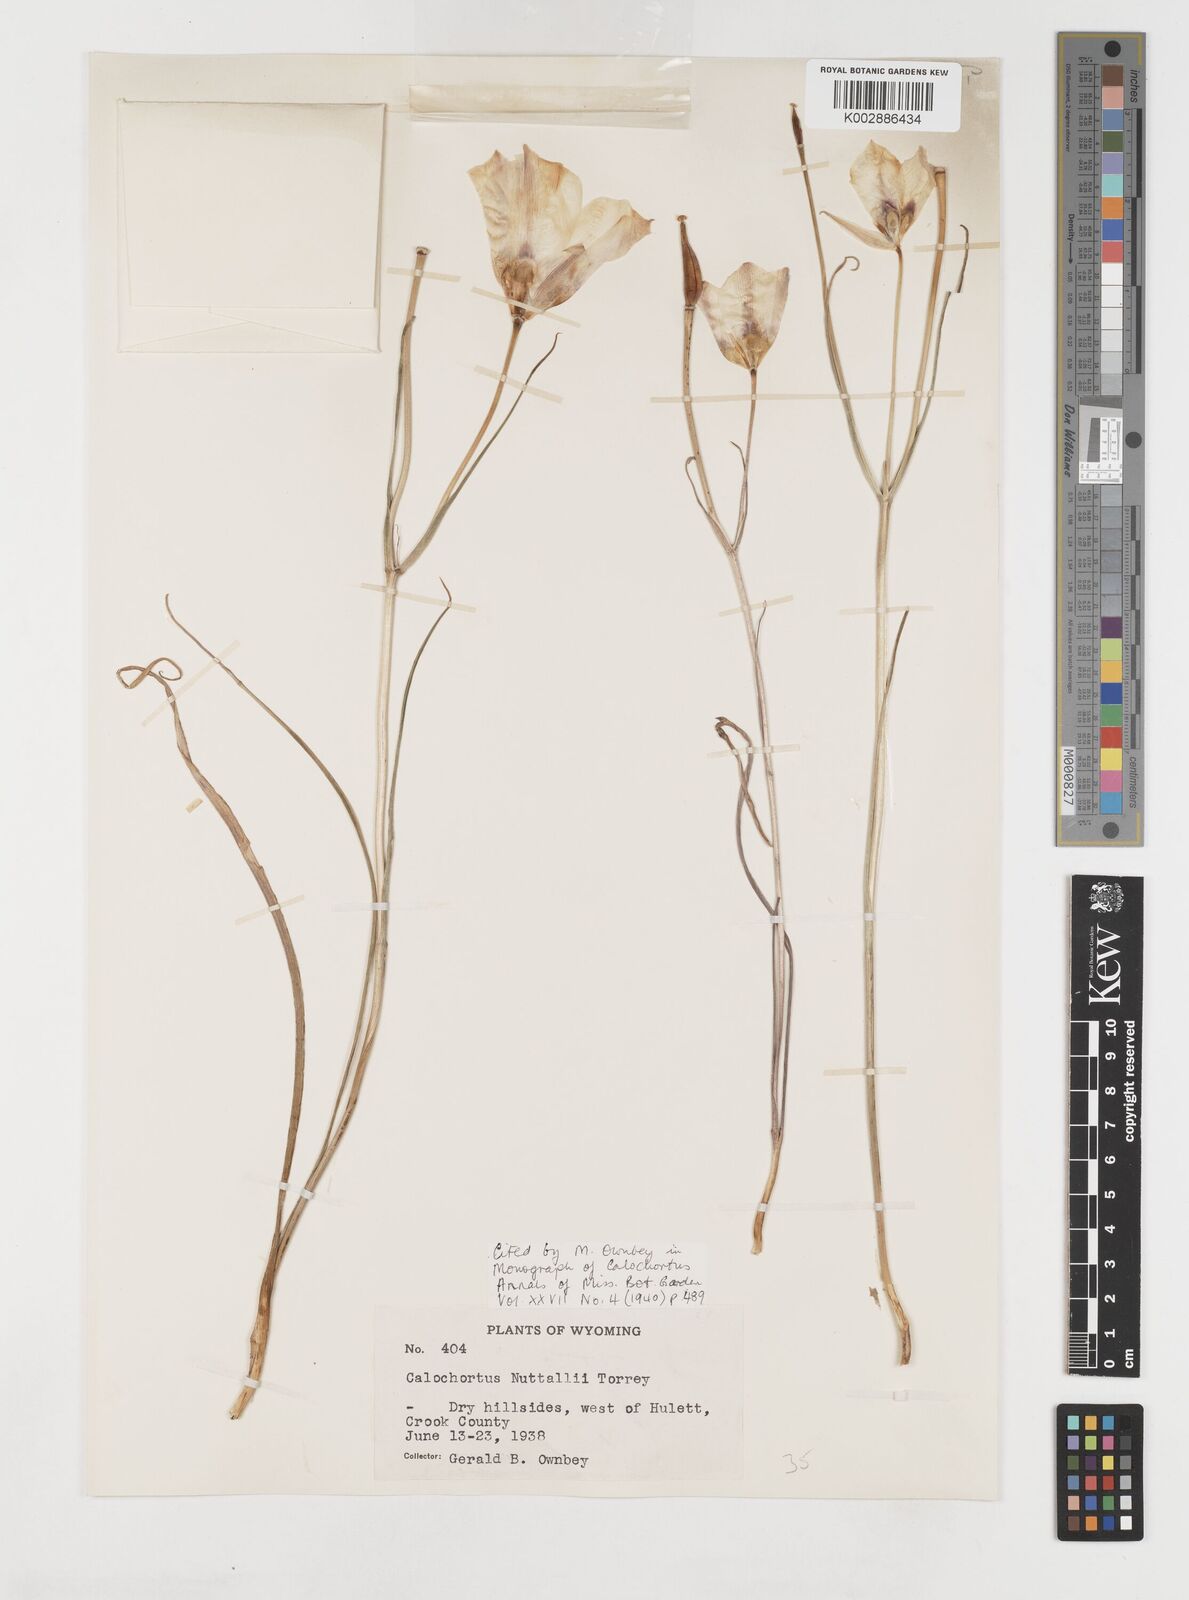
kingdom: Plantae
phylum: Tracheophyta
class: Liliopsida
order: Liliales
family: Liliaceae
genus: Calochortus
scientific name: Calochortus nuttallii
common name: Sego-lily
